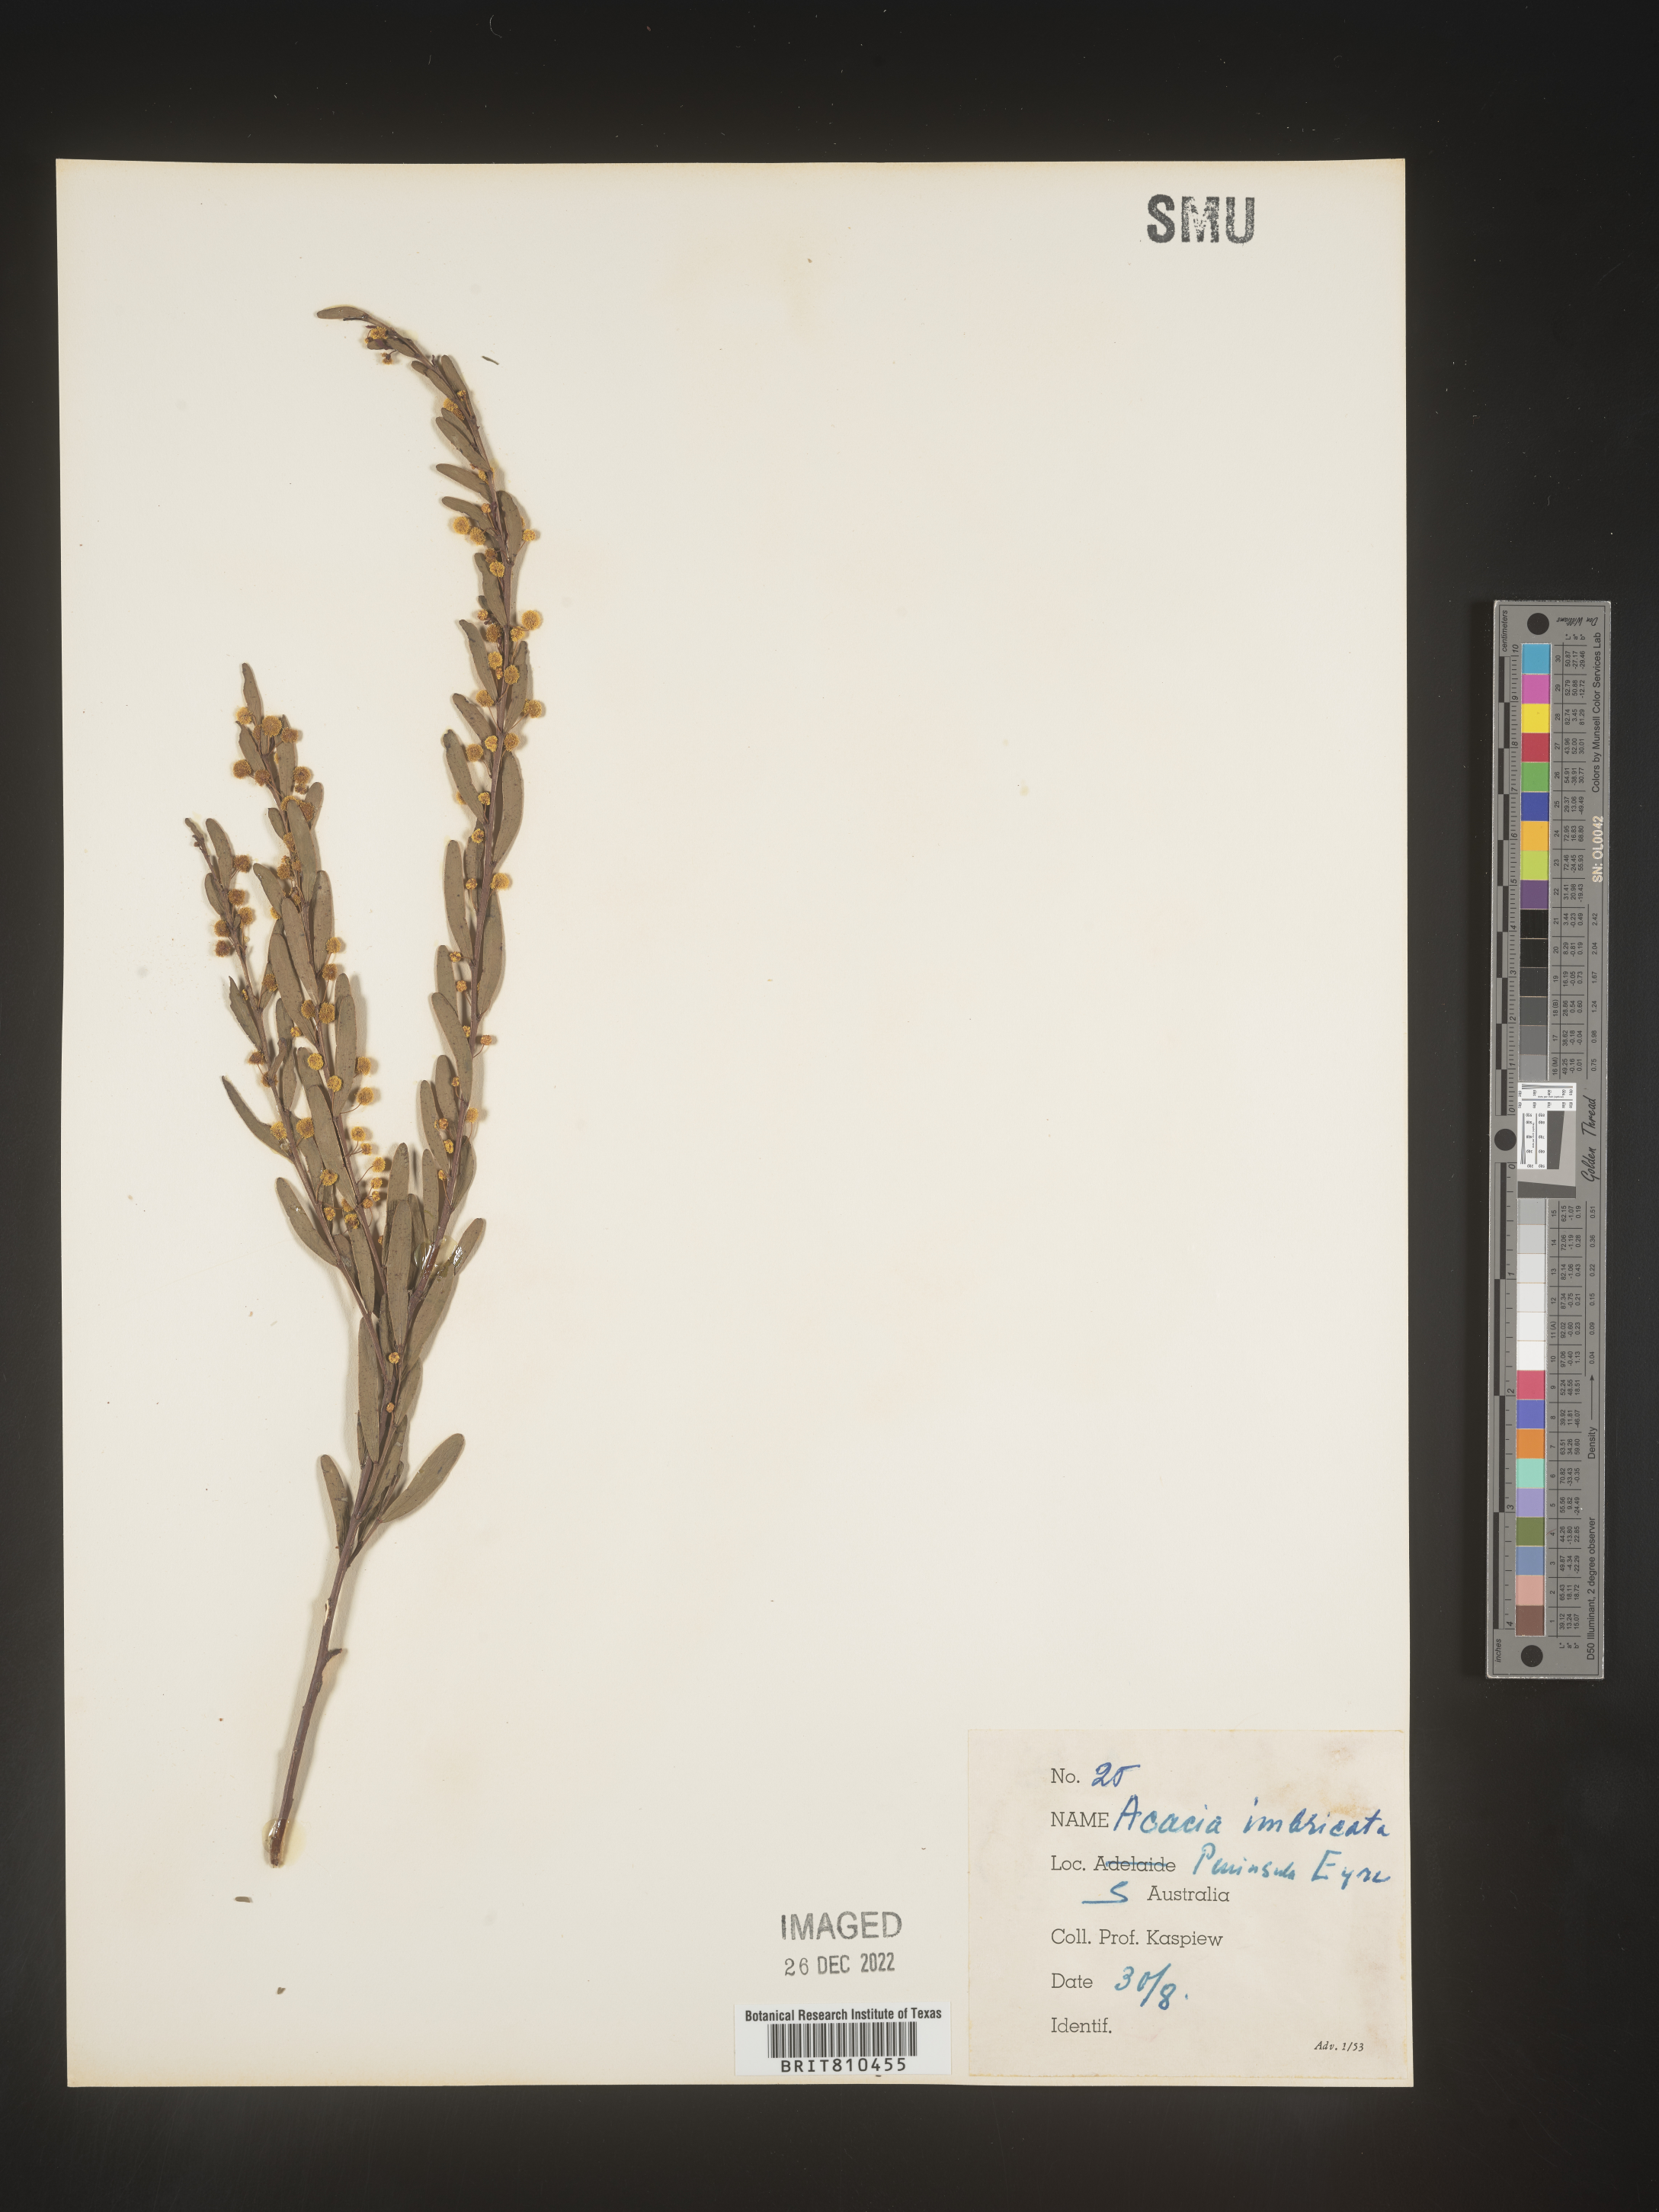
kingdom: Plantae
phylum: Tracheophyta
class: Magnoliopsida
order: Fabales
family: Fabaceae
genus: Acacia
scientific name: Acacia
